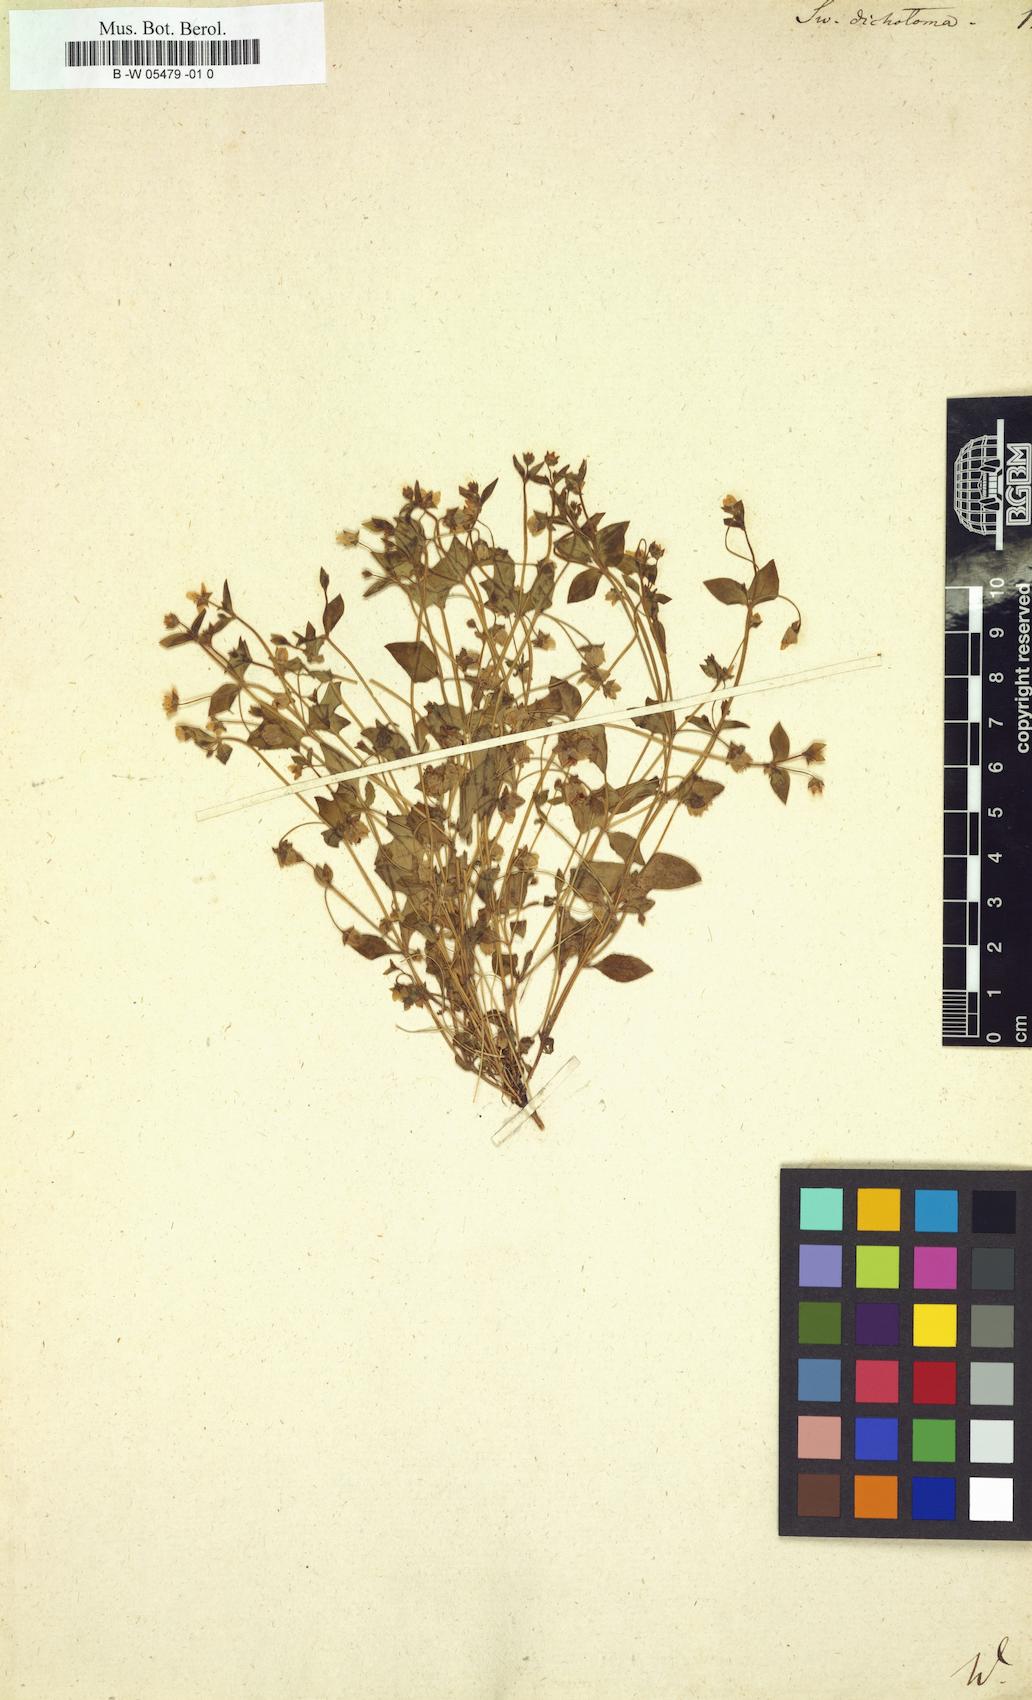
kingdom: Plantae
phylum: Tracheophyta
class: Magnoliopsida
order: Gentianales
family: Gentianaceae
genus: Swertia
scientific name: Swertia dichotoma
